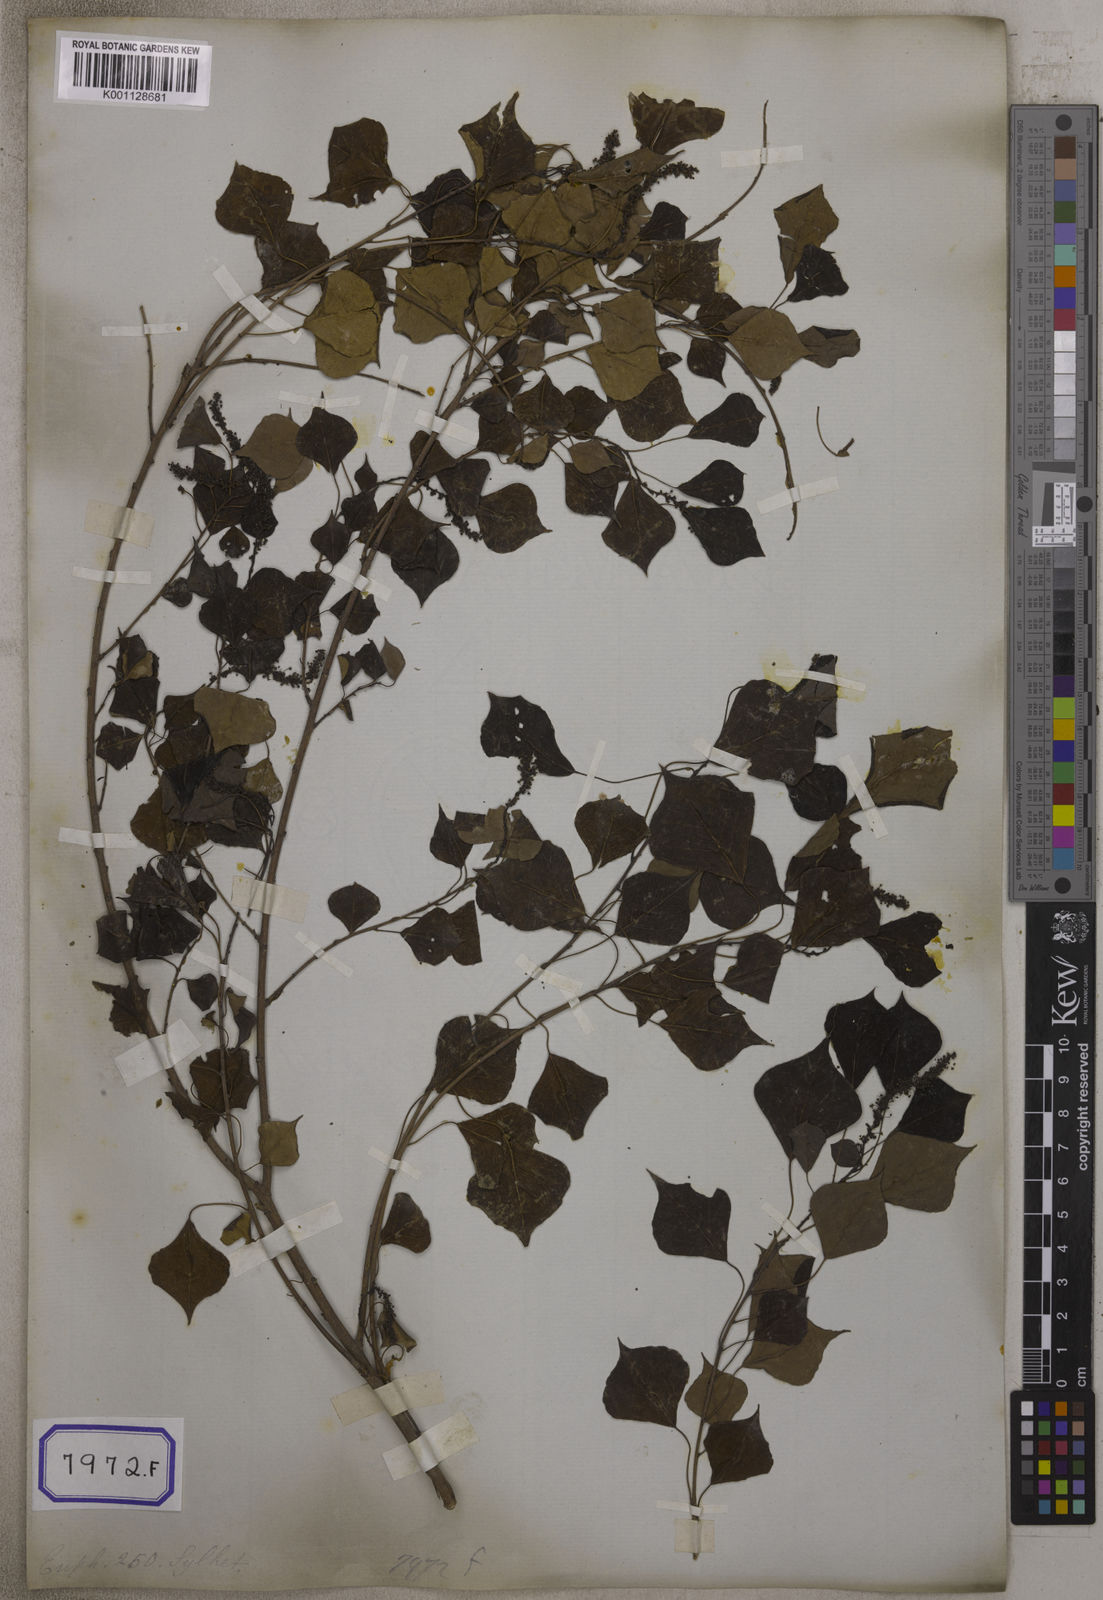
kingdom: Plantae
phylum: Tracheophyta
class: Magnoliopsida
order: Malpighiales
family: Euphorbiaceae
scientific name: Euphorbiaceae
